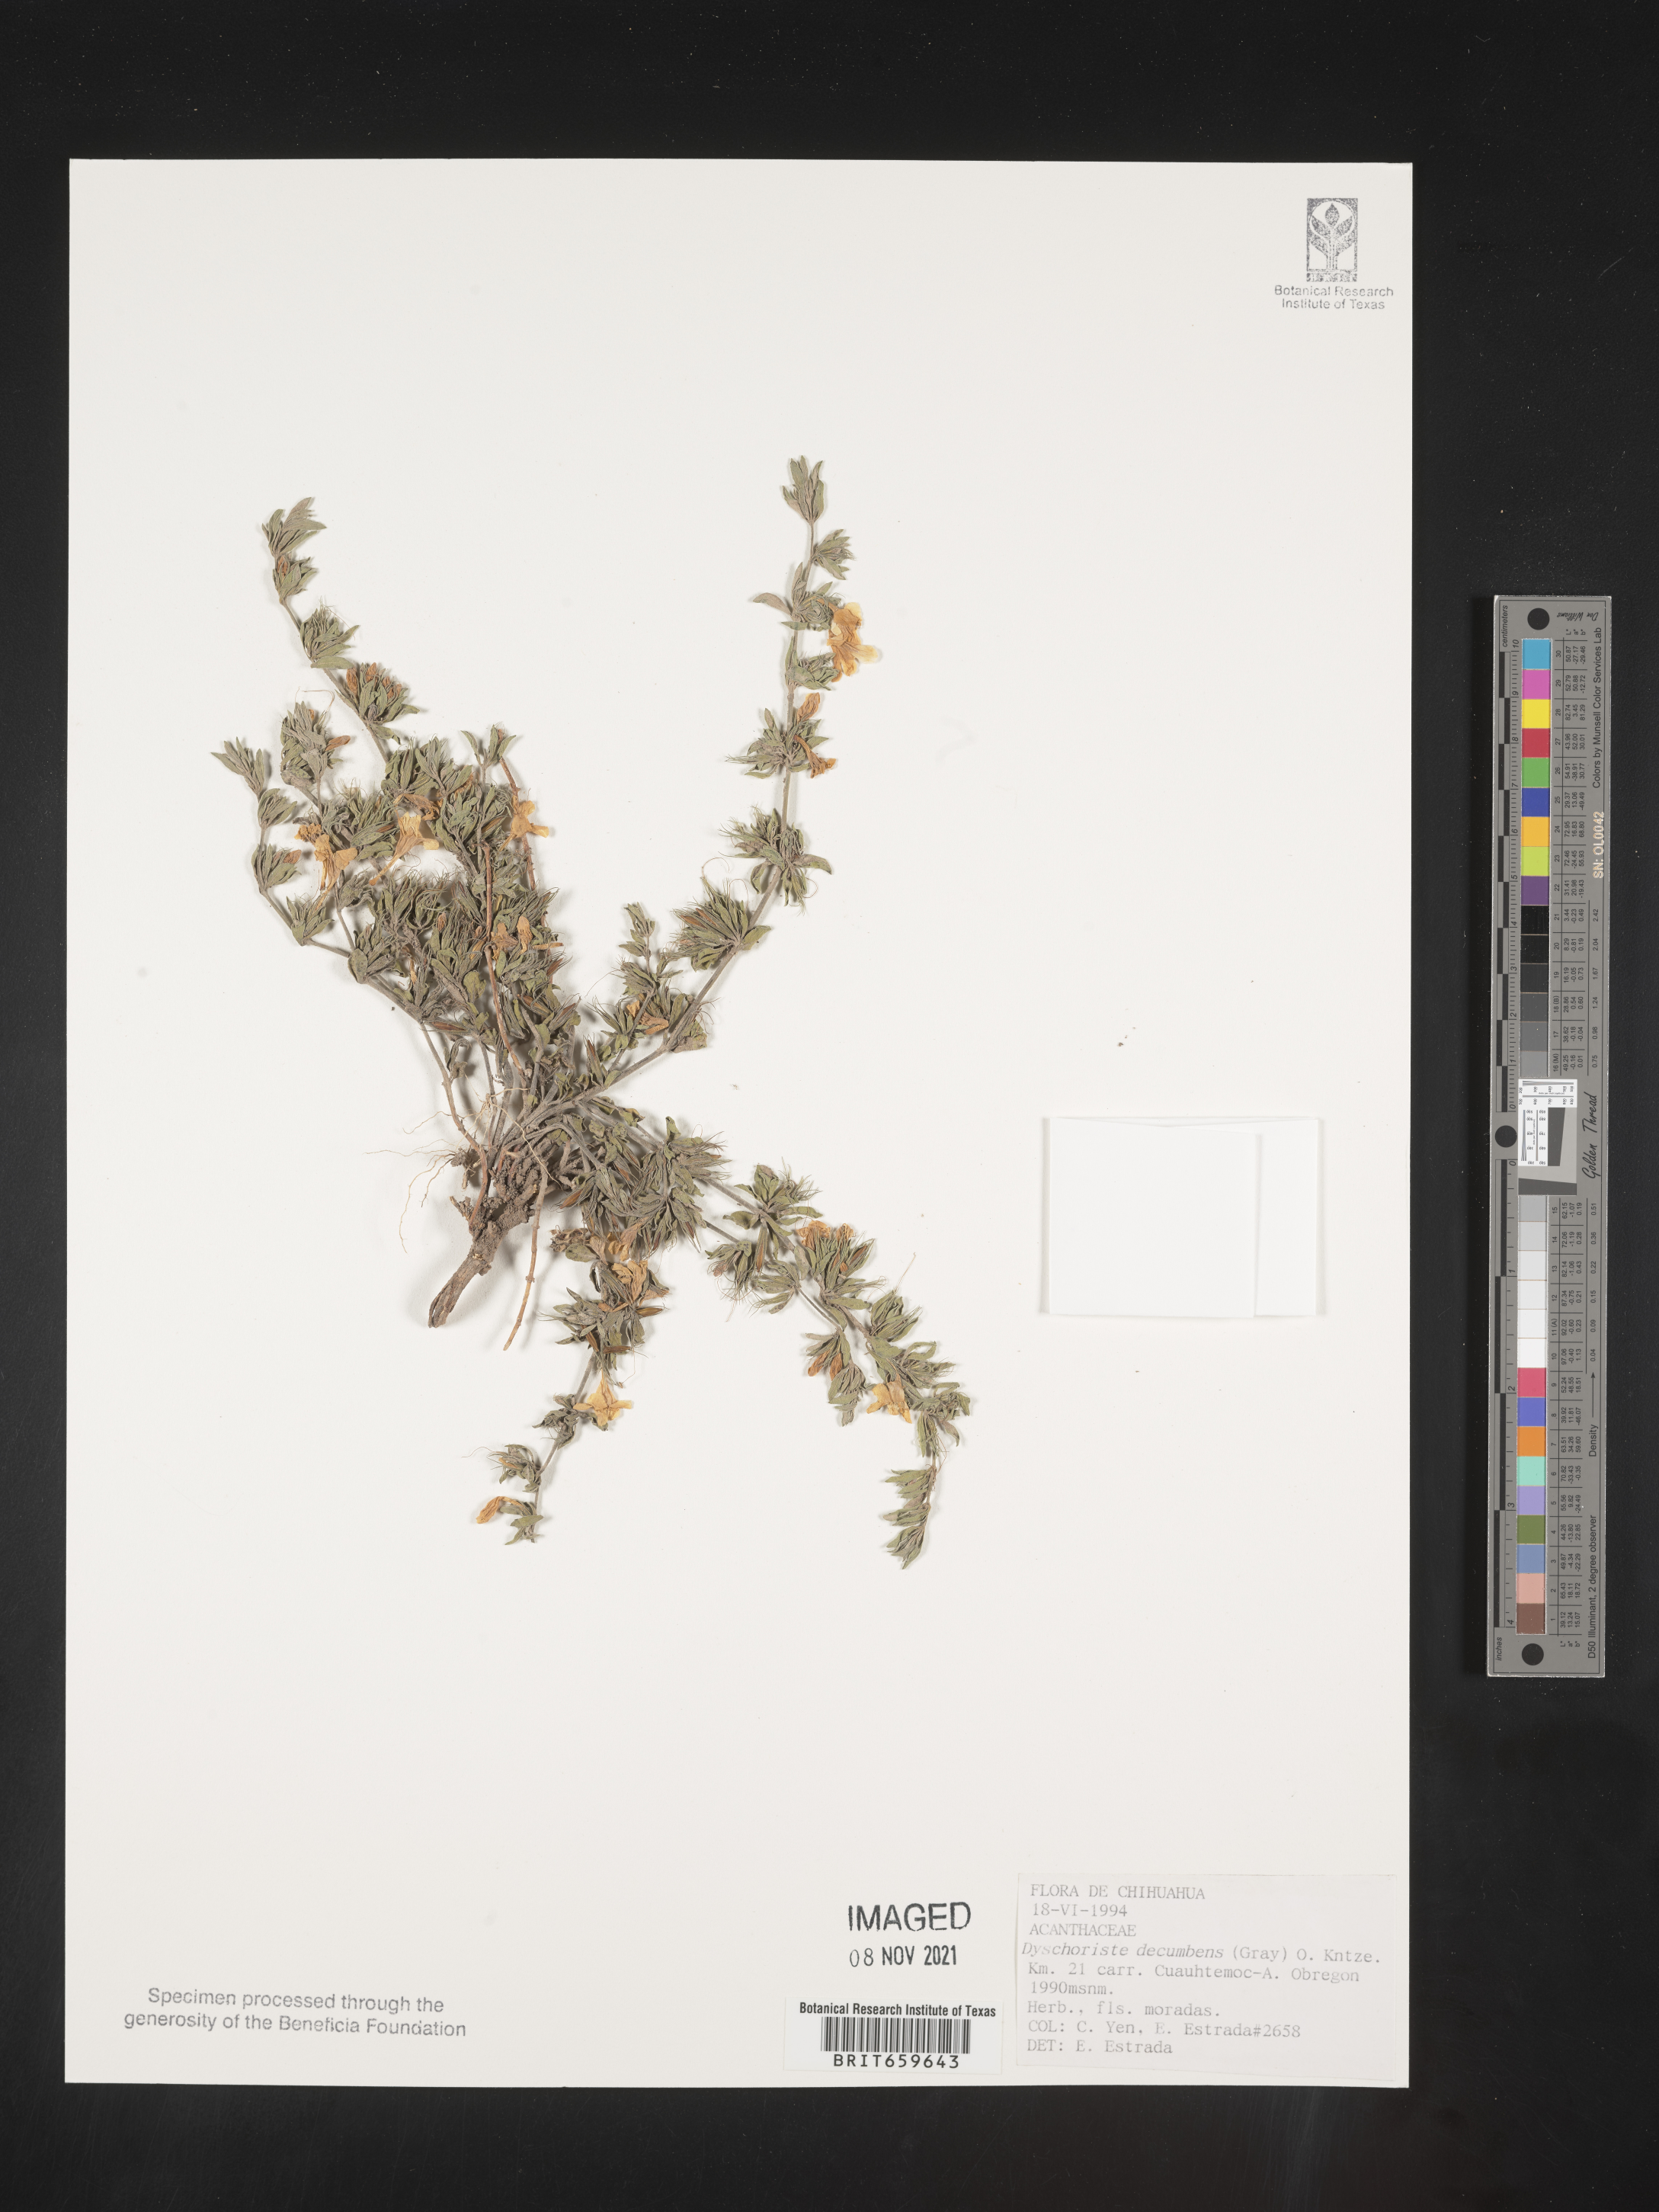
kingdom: Plantae
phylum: Tracheophyta
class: Magnoliopsida
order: Lamiales
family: Acanthaceae
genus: Dyschoriste
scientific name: Dyschoriste
